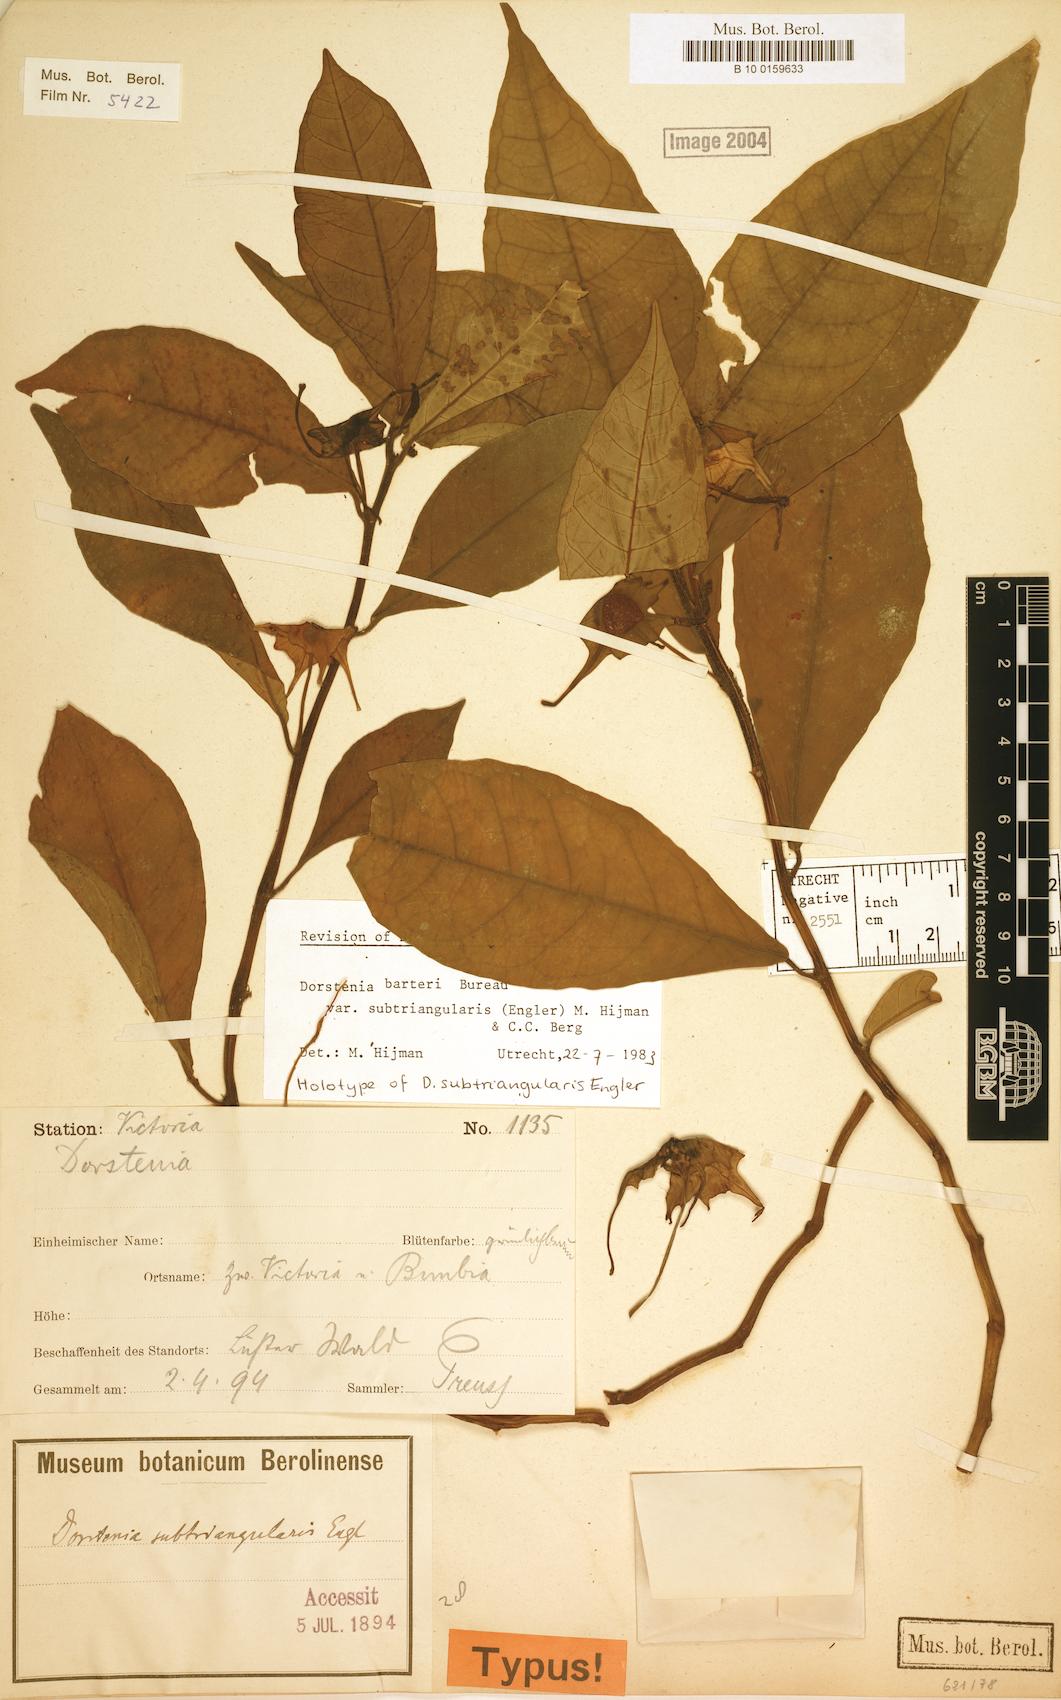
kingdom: Plantae
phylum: Tracheophyta
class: Magnoliopsida
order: Rosales
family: Moraceae
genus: Dorstenia
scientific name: Dorstenia barteri
